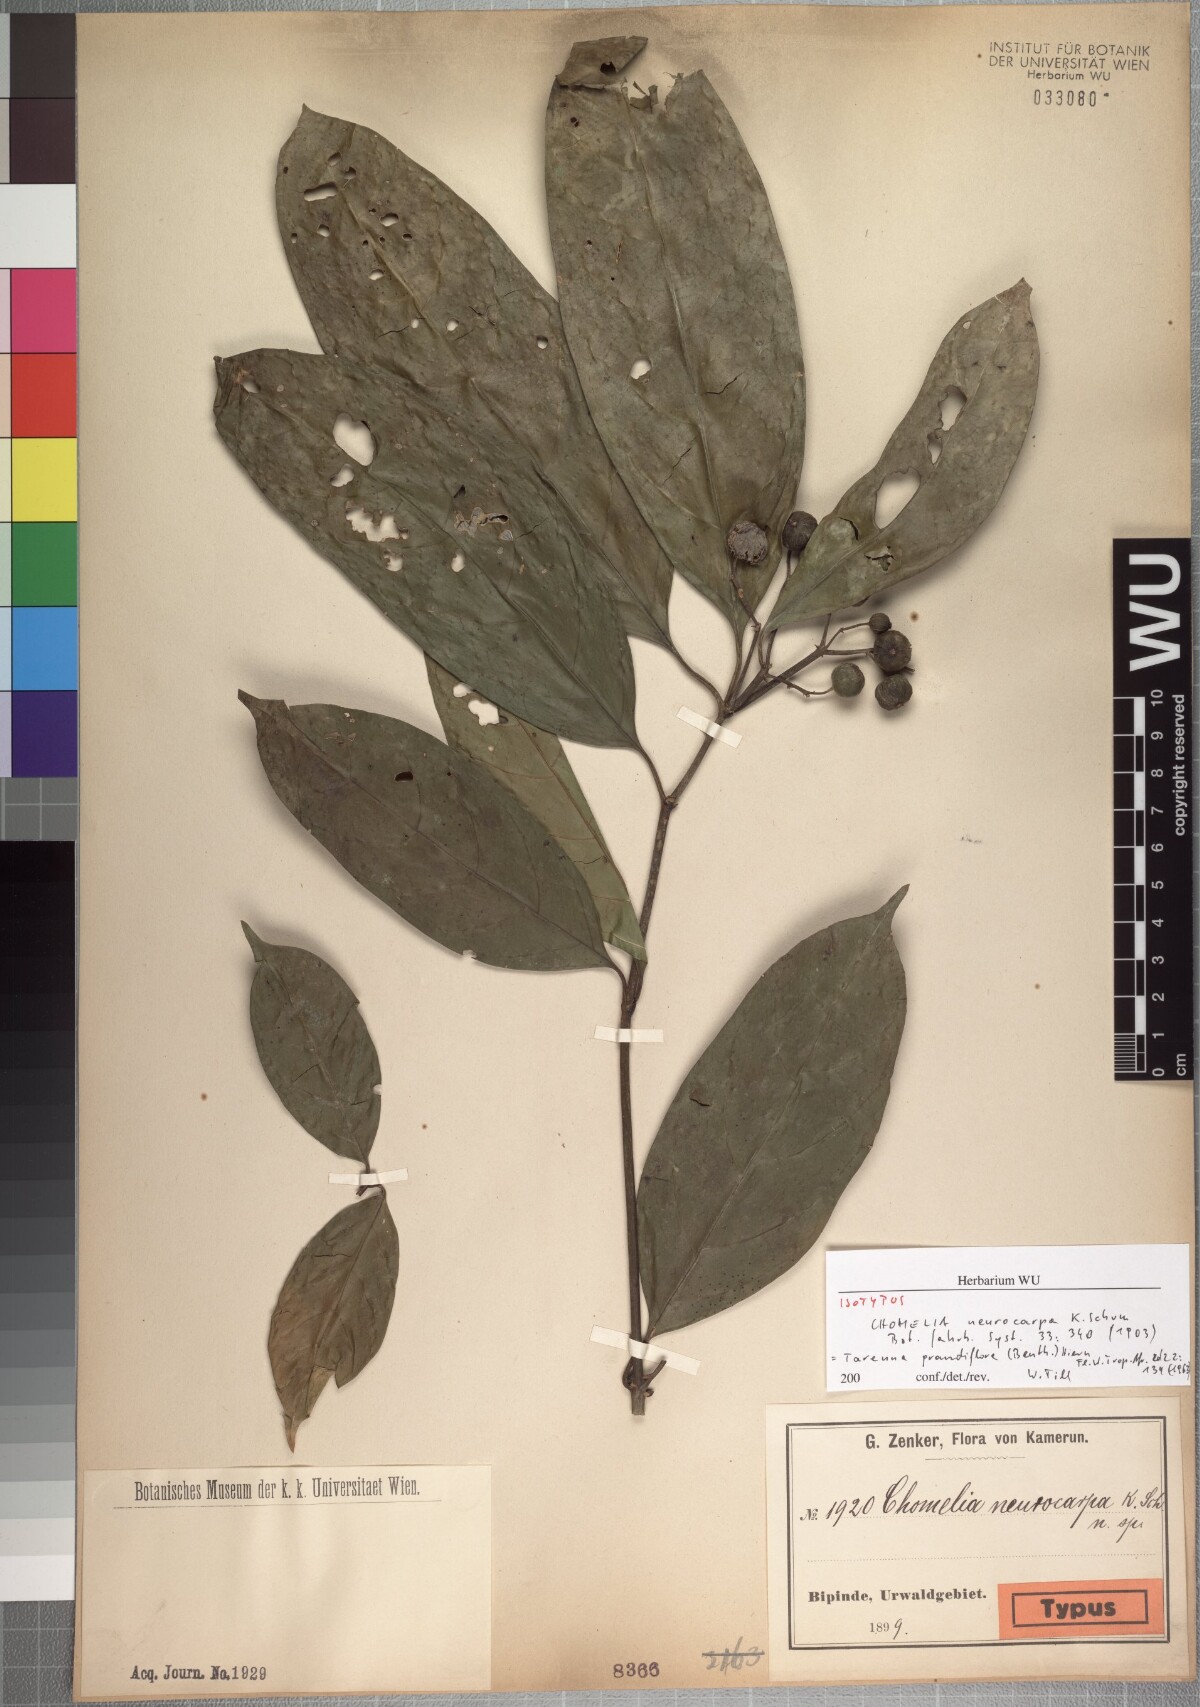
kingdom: Plantae
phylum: Tracheophyta
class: Magnoliopsida
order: Gentianales
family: Rubiaceae
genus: Tarenna
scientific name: Tarenna grandiflora
